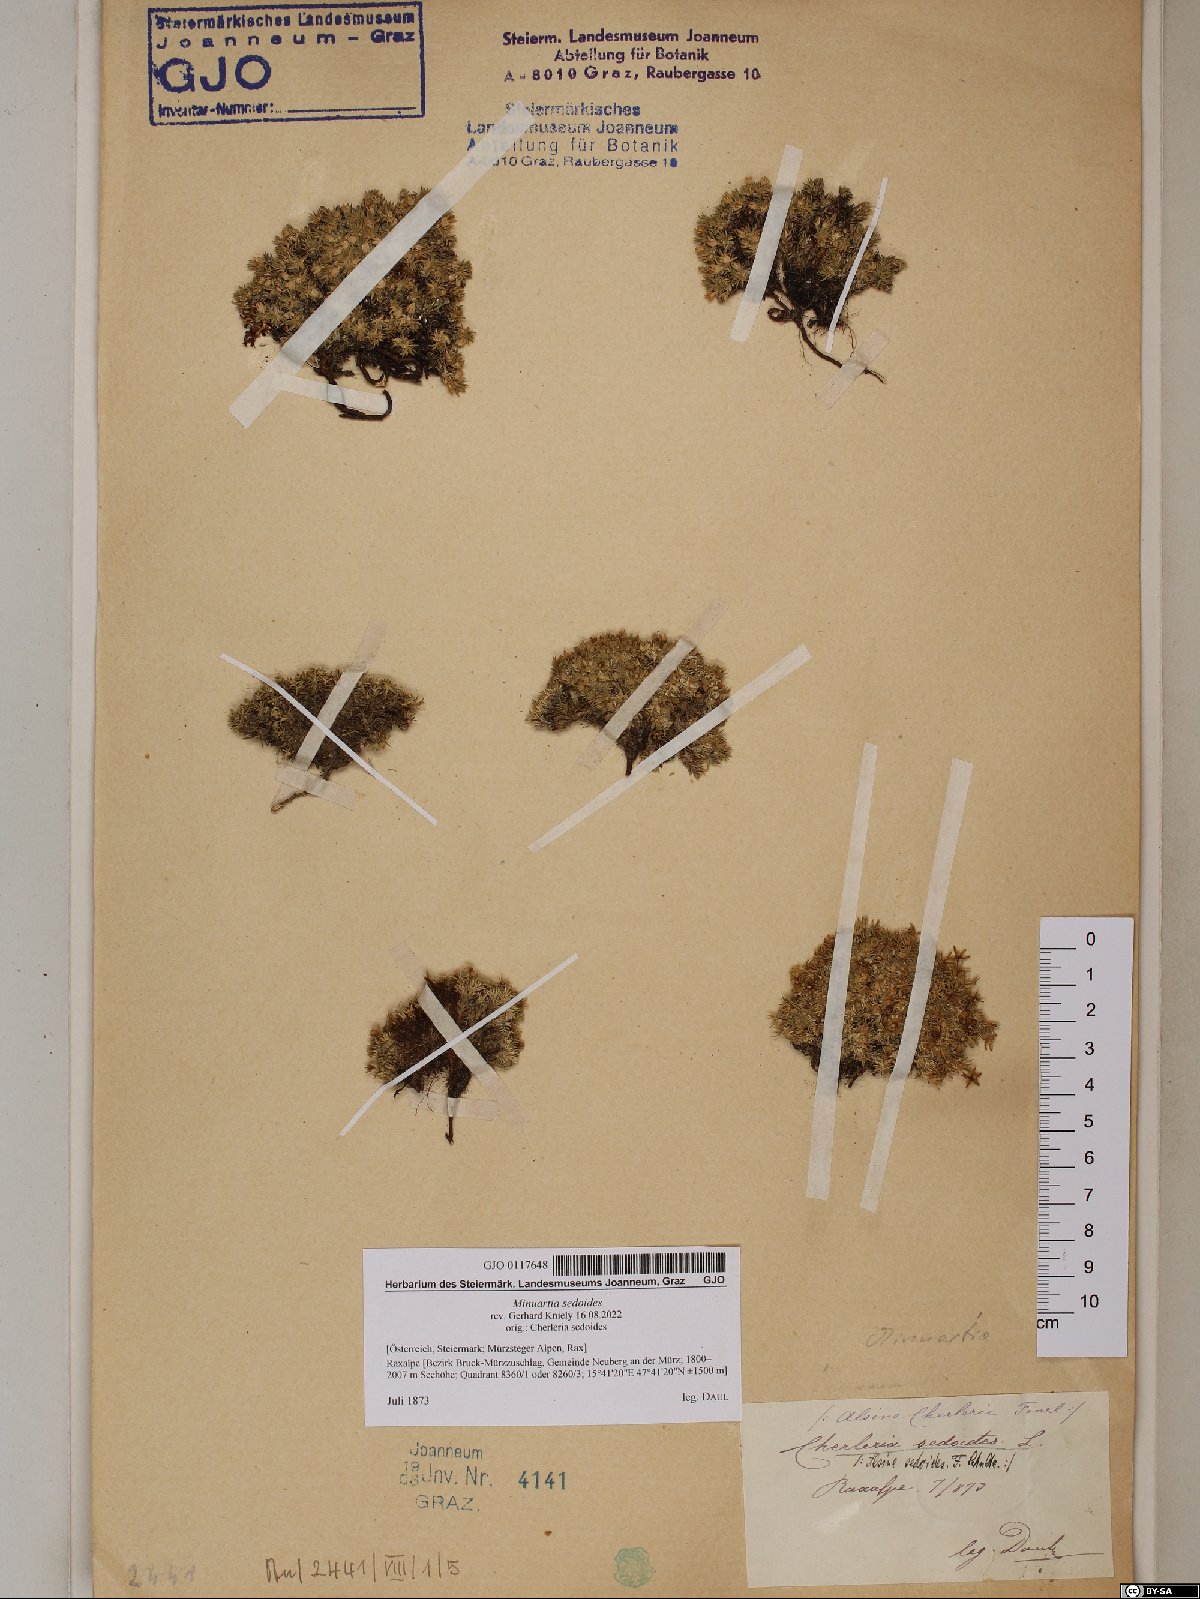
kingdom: Plantae
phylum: Tracheophyta
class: Magnoliopsida
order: Caryophyllales
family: Caryophyllaceae
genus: Cherleria
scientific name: Cherleria sedoides
